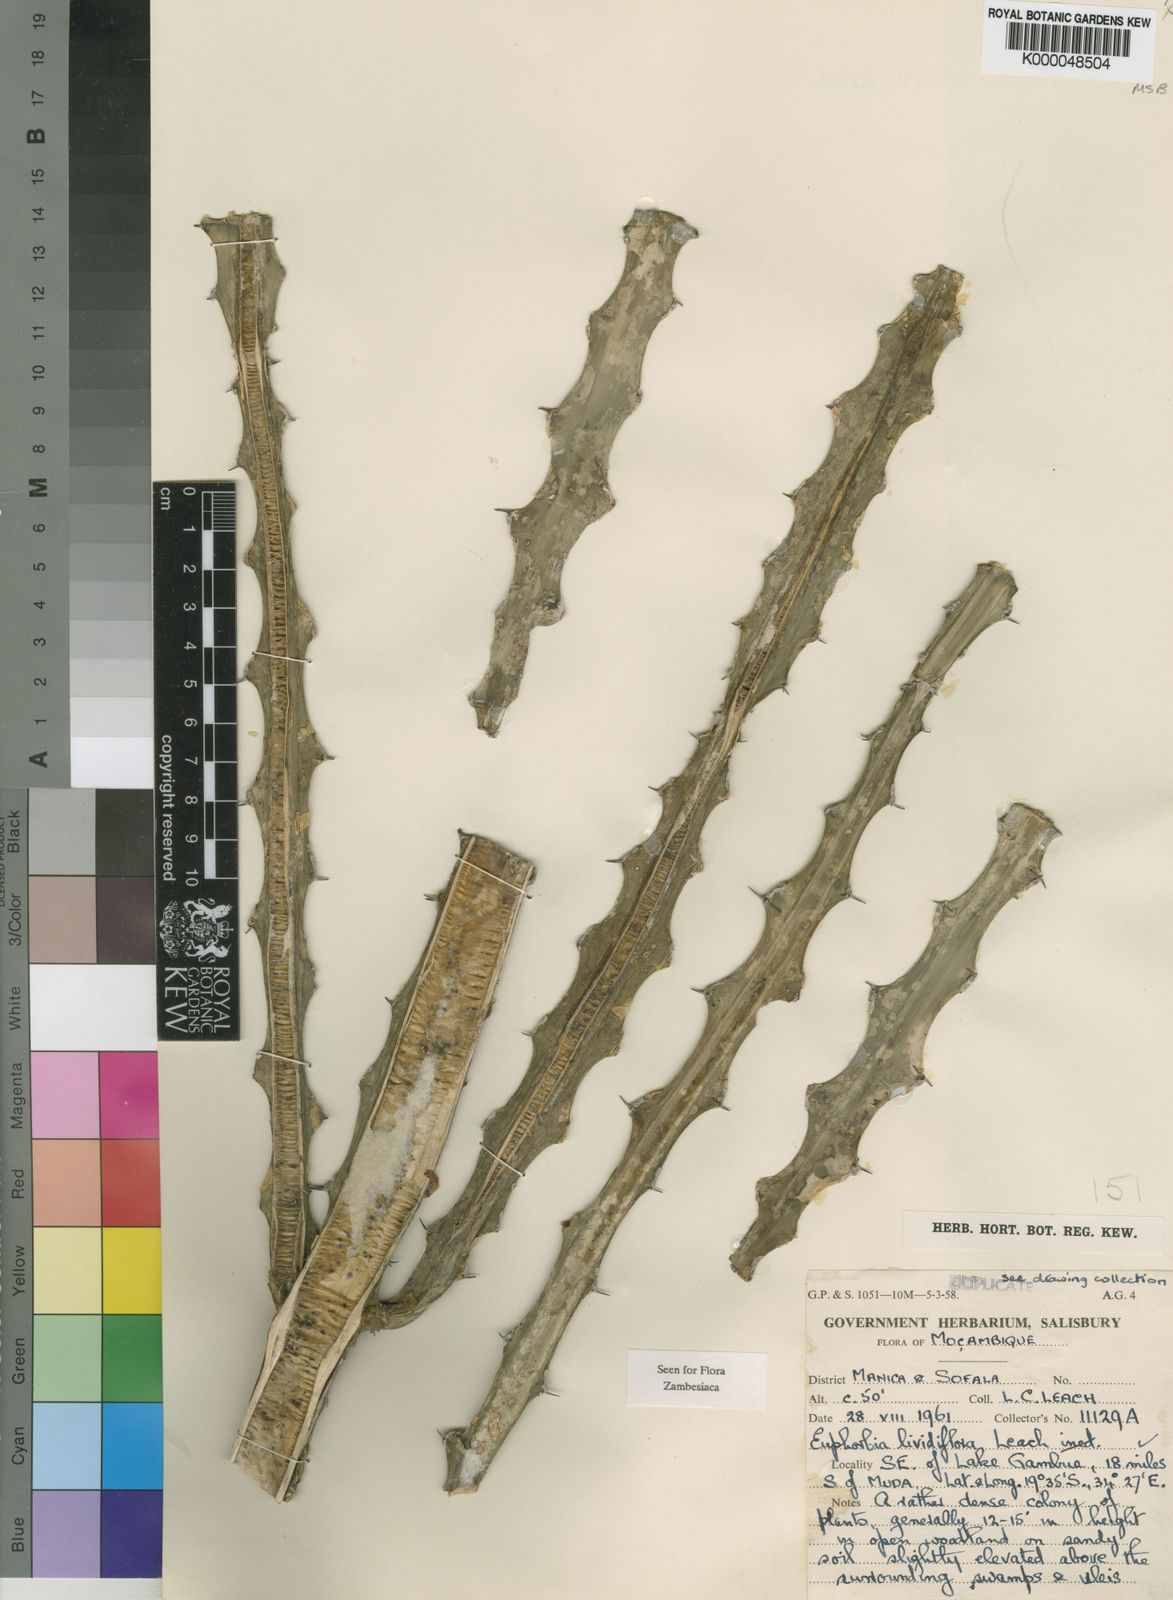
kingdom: Plantae
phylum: Tracheophyta
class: Magnoliopsida
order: Malpighiales
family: Euphorbiaceae
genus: Euphorbia
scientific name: Euphorbia lividiflora
